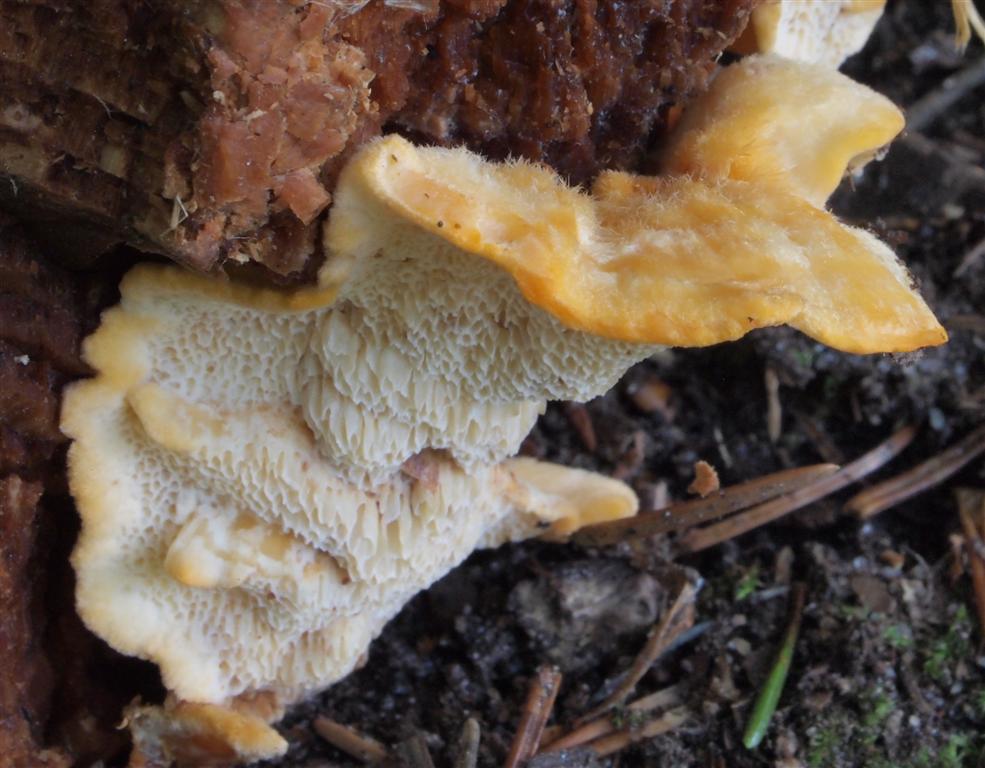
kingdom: Fungi
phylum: Basidiomycota
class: Agaricomycetes
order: Polyporales
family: Pycnoporellaceae
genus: Pycnoporellus
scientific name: Pycnoporellus fulgens
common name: flammeporesvamp
